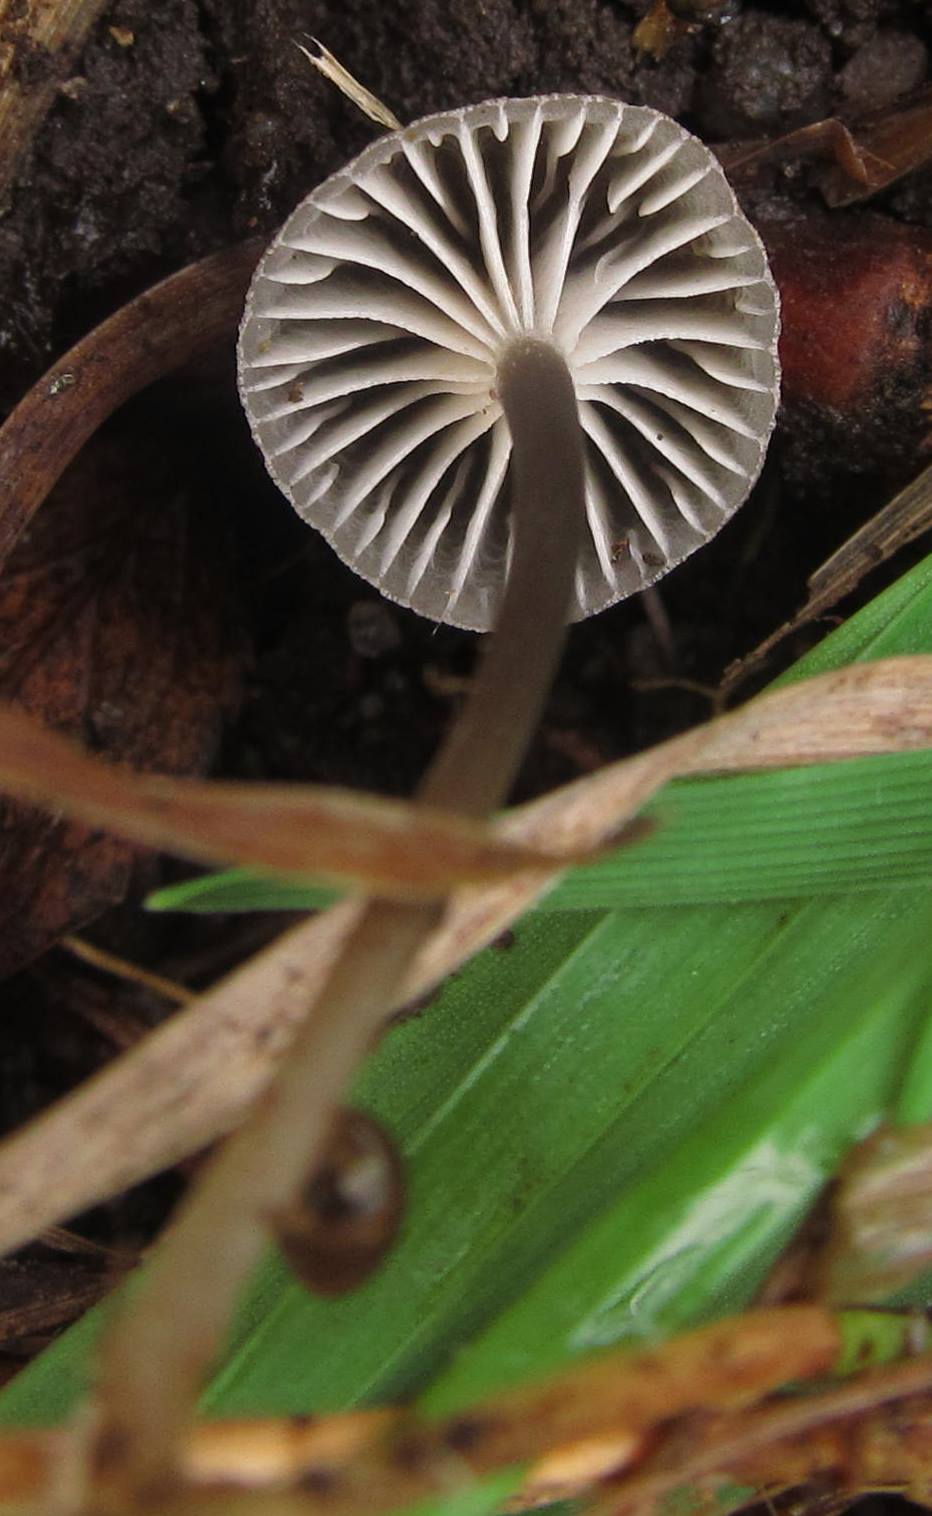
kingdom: Fungi
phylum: Basidiomycota
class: Agaricomycetes
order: Agaricales
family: Mycenaceae
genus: Mycena
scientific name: Mycena pseudopicta
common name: overdrevs-huesvamp
